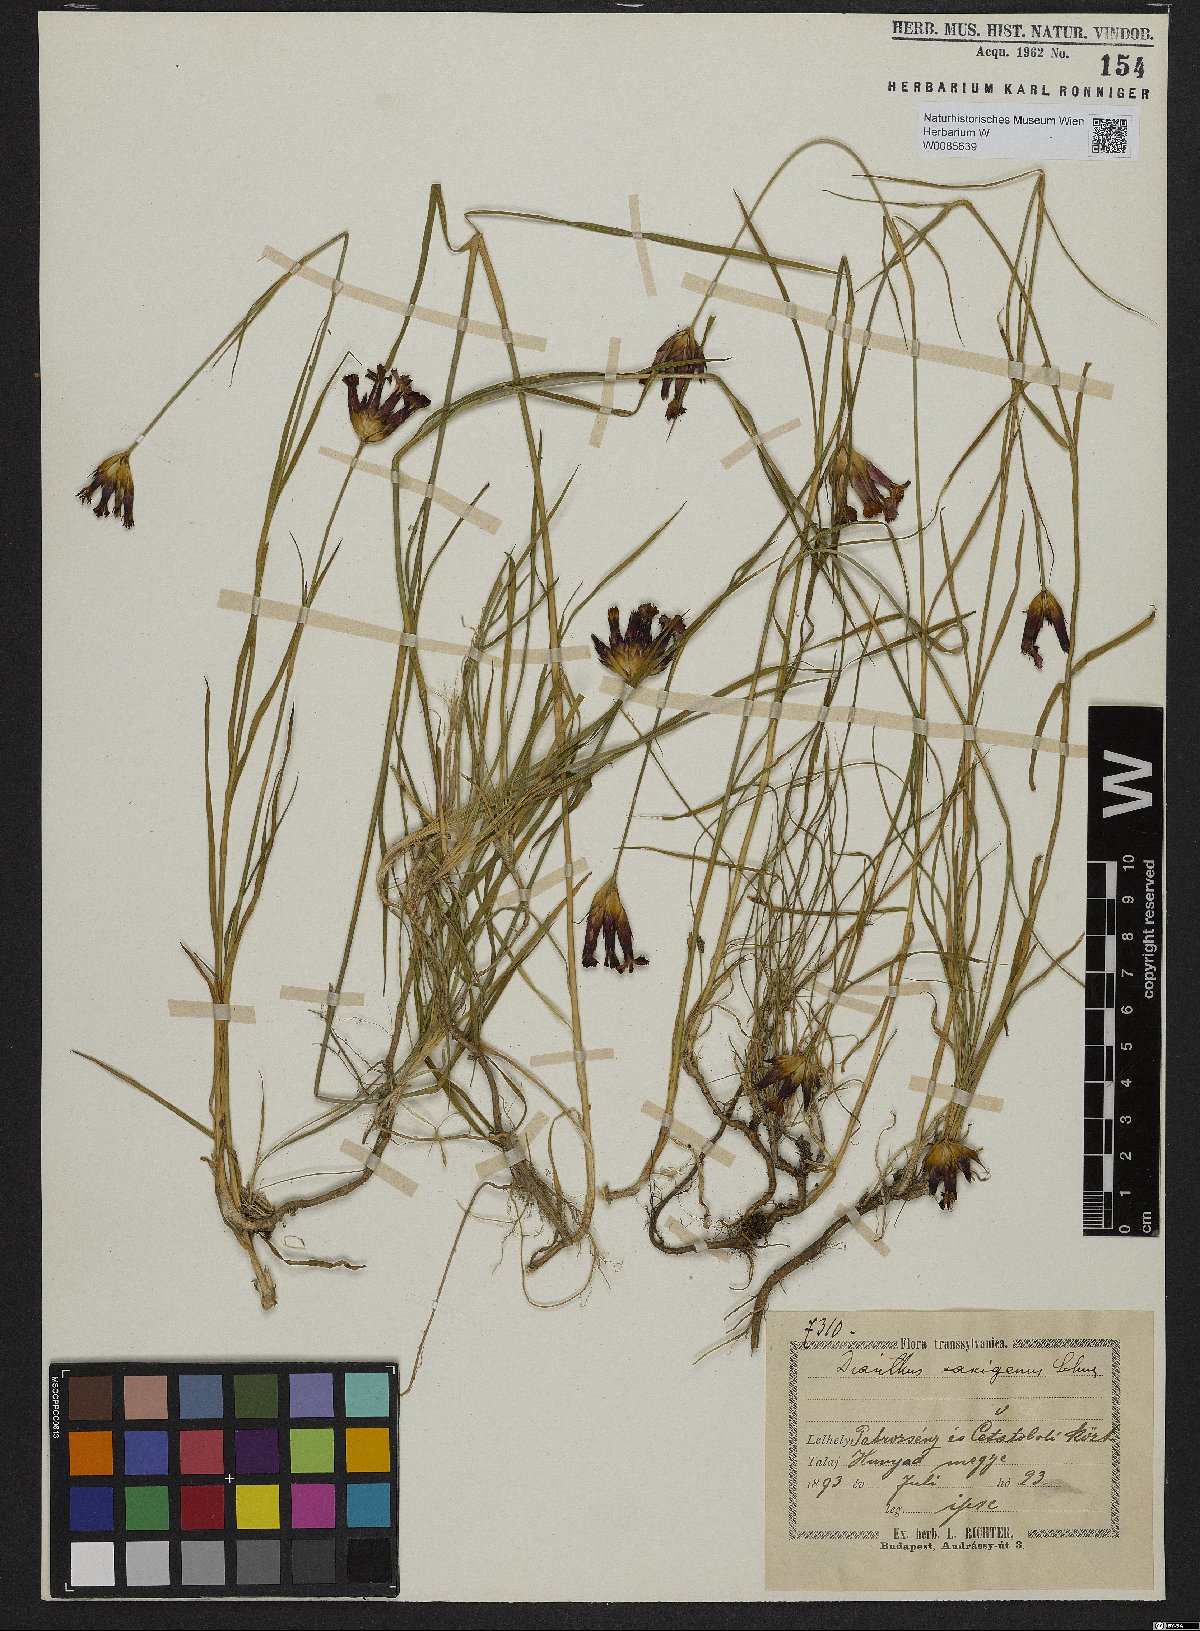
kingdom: Plantae
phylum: Tracheophyta
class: Magnoliopsida
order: Caryophyllales
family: Caryophyllaceae
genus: Dianthus
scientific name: Dianthus
